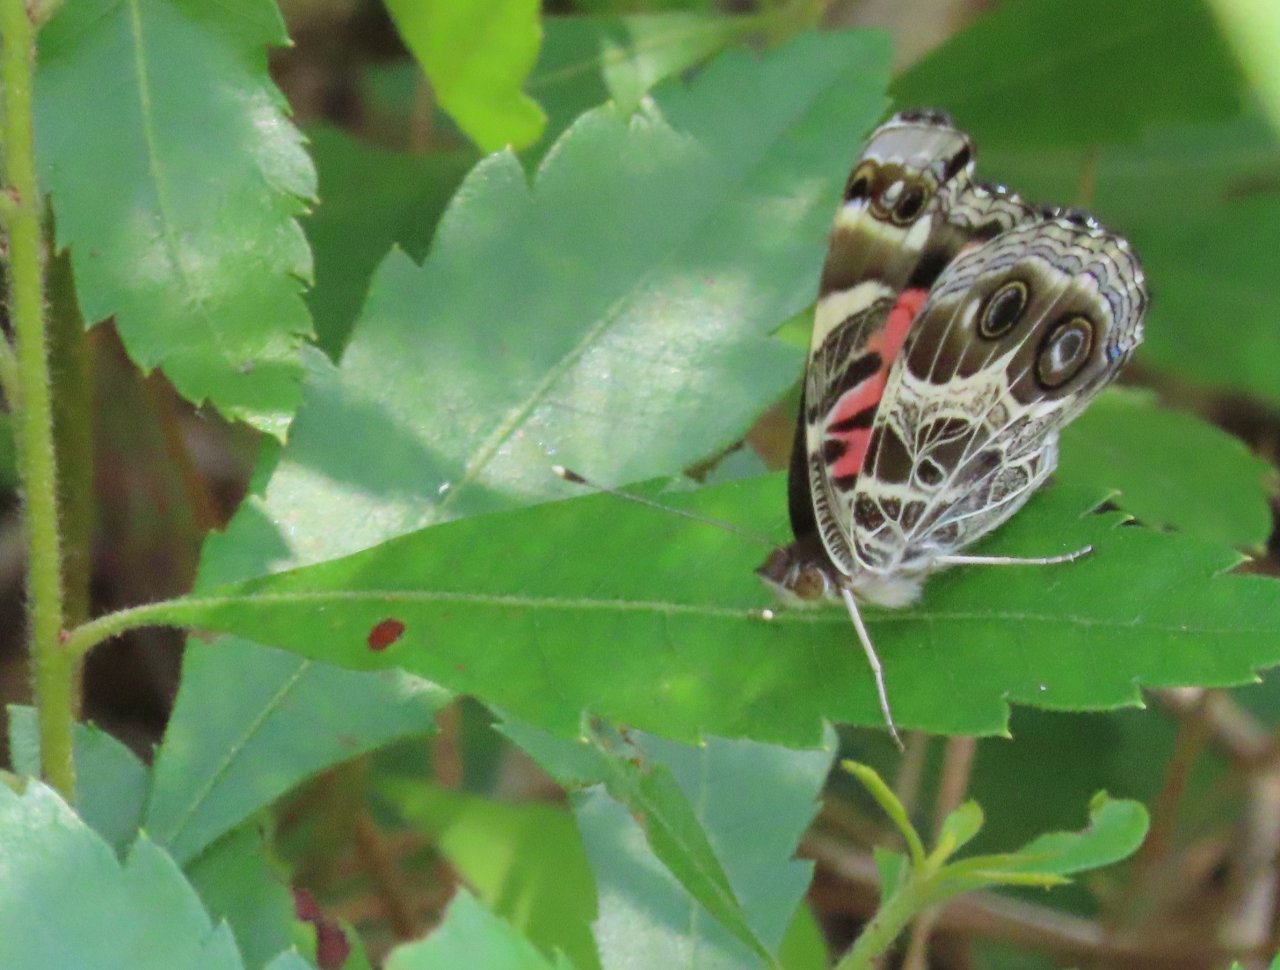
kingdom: Animalia
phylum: Arthropoda
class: Insecta
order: Lepidoptera
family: Nymphalidae
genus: Vanessa
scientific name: Vanessa virginiensis
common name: American Lady
